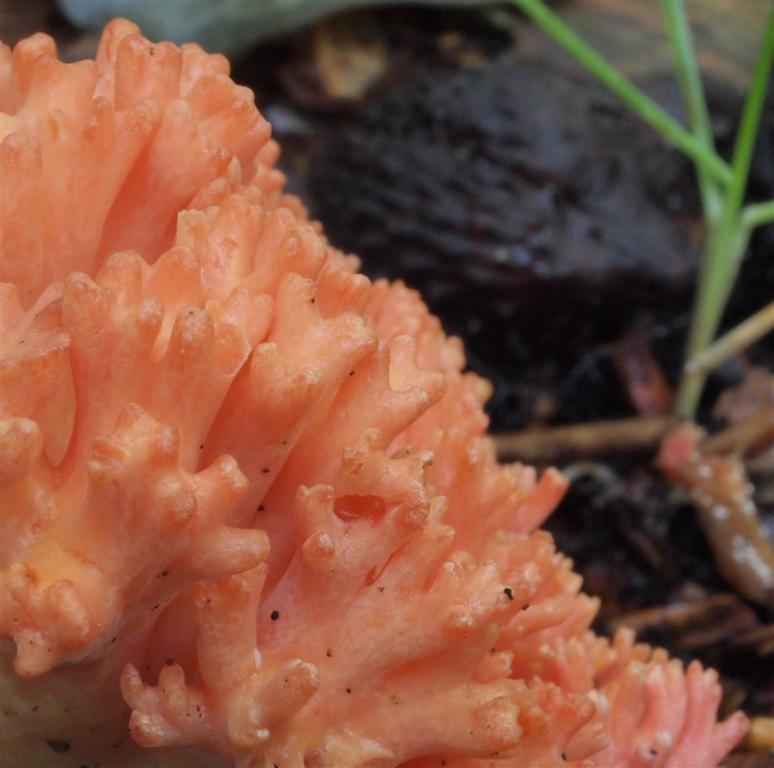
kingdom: Fungi
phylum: Basidiomycota
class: Agaricomycetes
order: Gomphales
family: Gomphaceae
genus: Ramaria
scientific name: Ramaria fagetorum
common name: abrikos-koralsvamp
